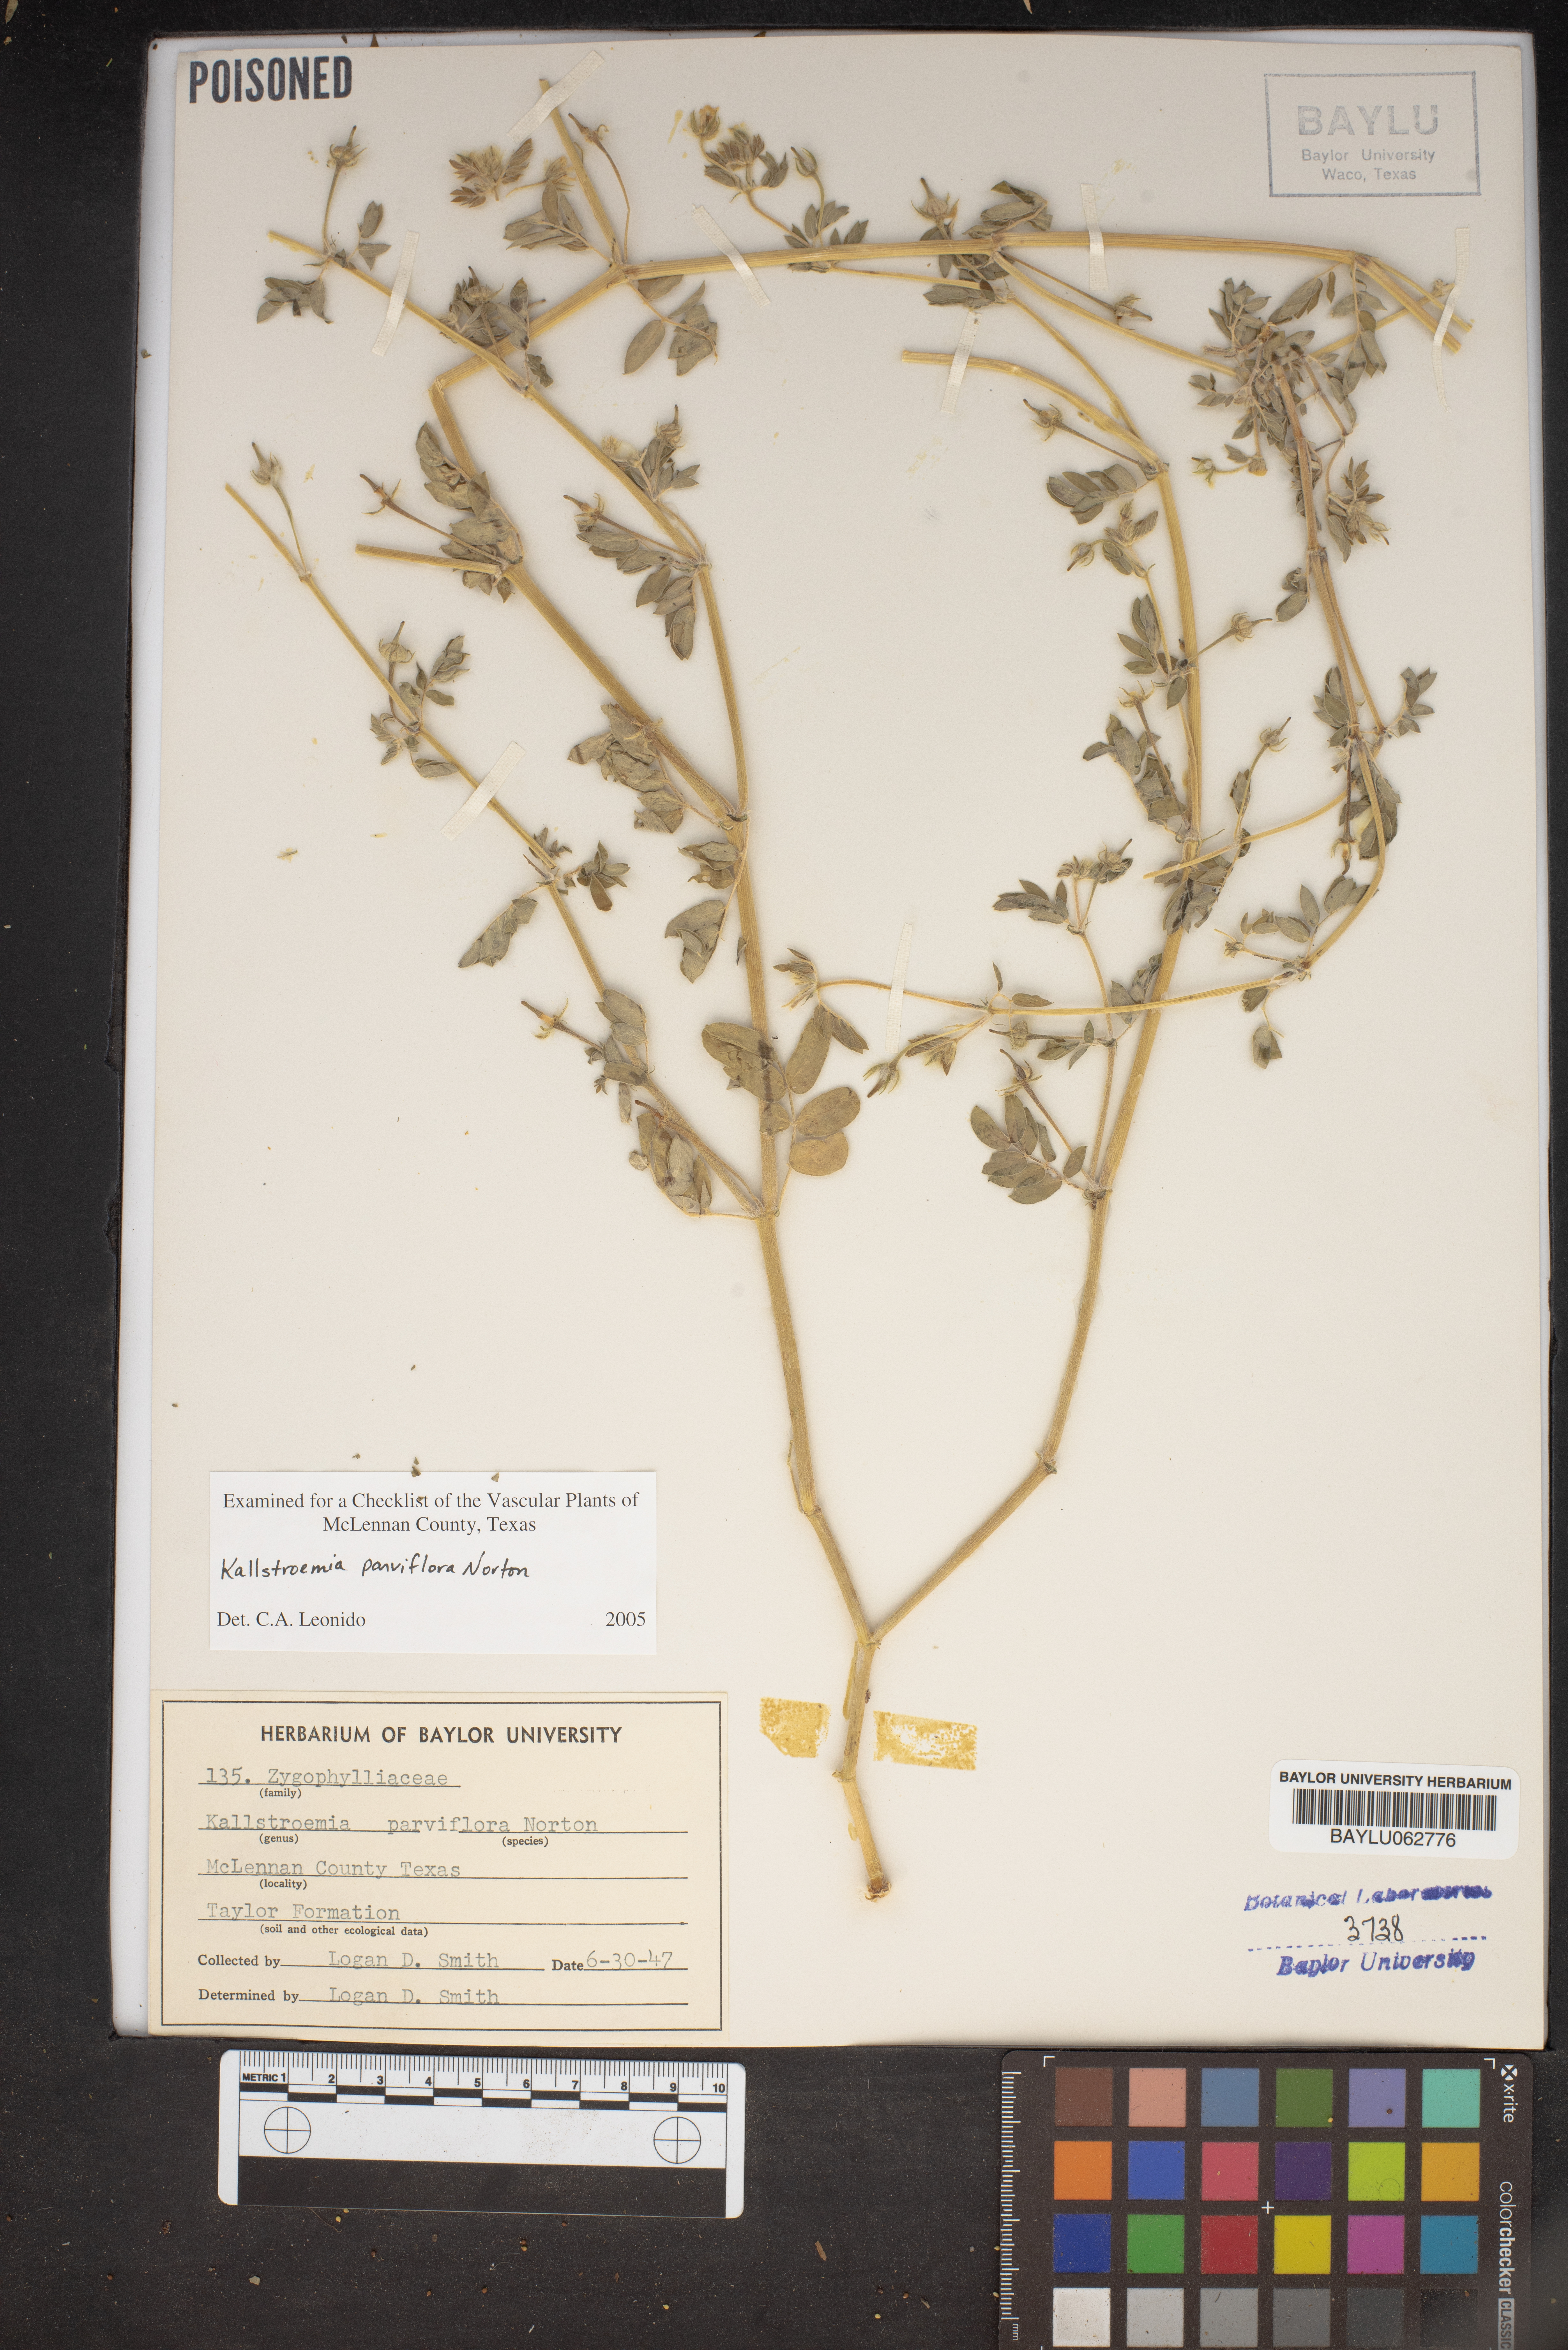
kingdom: Plantae
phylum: Tracheophyta
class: Magnoliopsida
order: Zygophyllales
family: Zygophyllaceae
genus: Kallstroemia
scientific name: Kallstroemia parviflora
